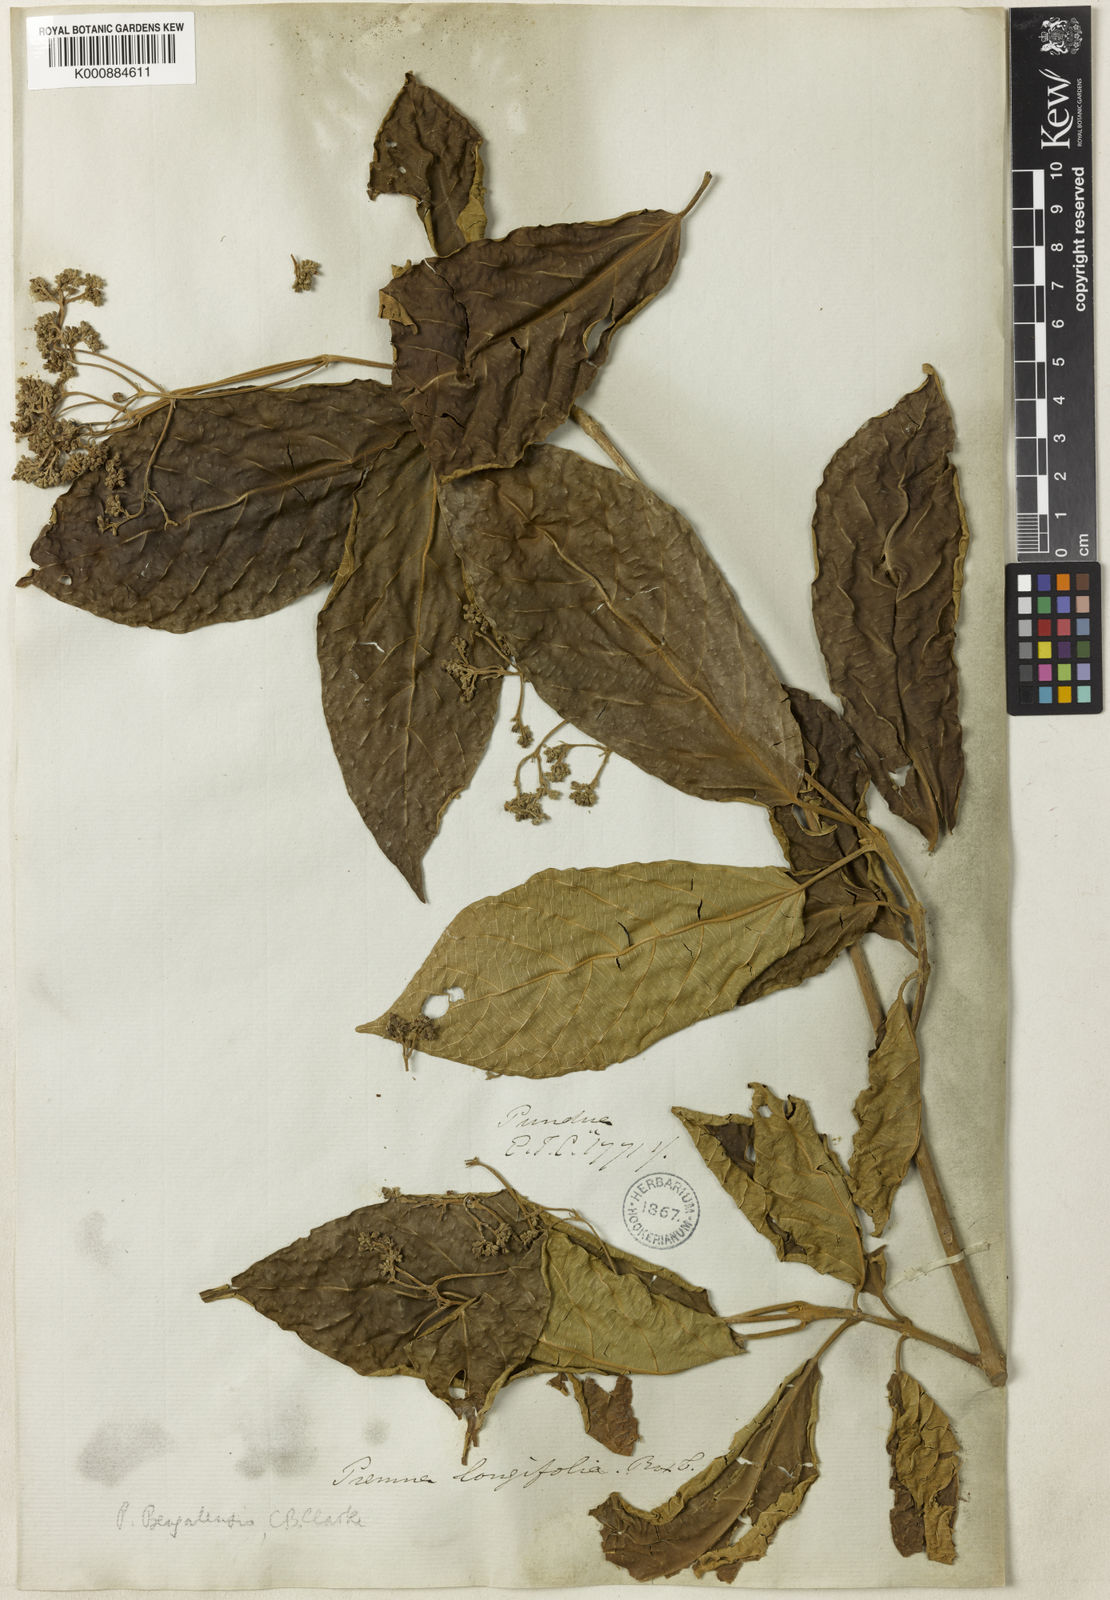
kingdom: Plantae
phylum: Tracheophyta
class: Magnoliopsida
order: Lamiales
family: Lamiaceae
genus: Premna
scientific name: Premna bengalensis
